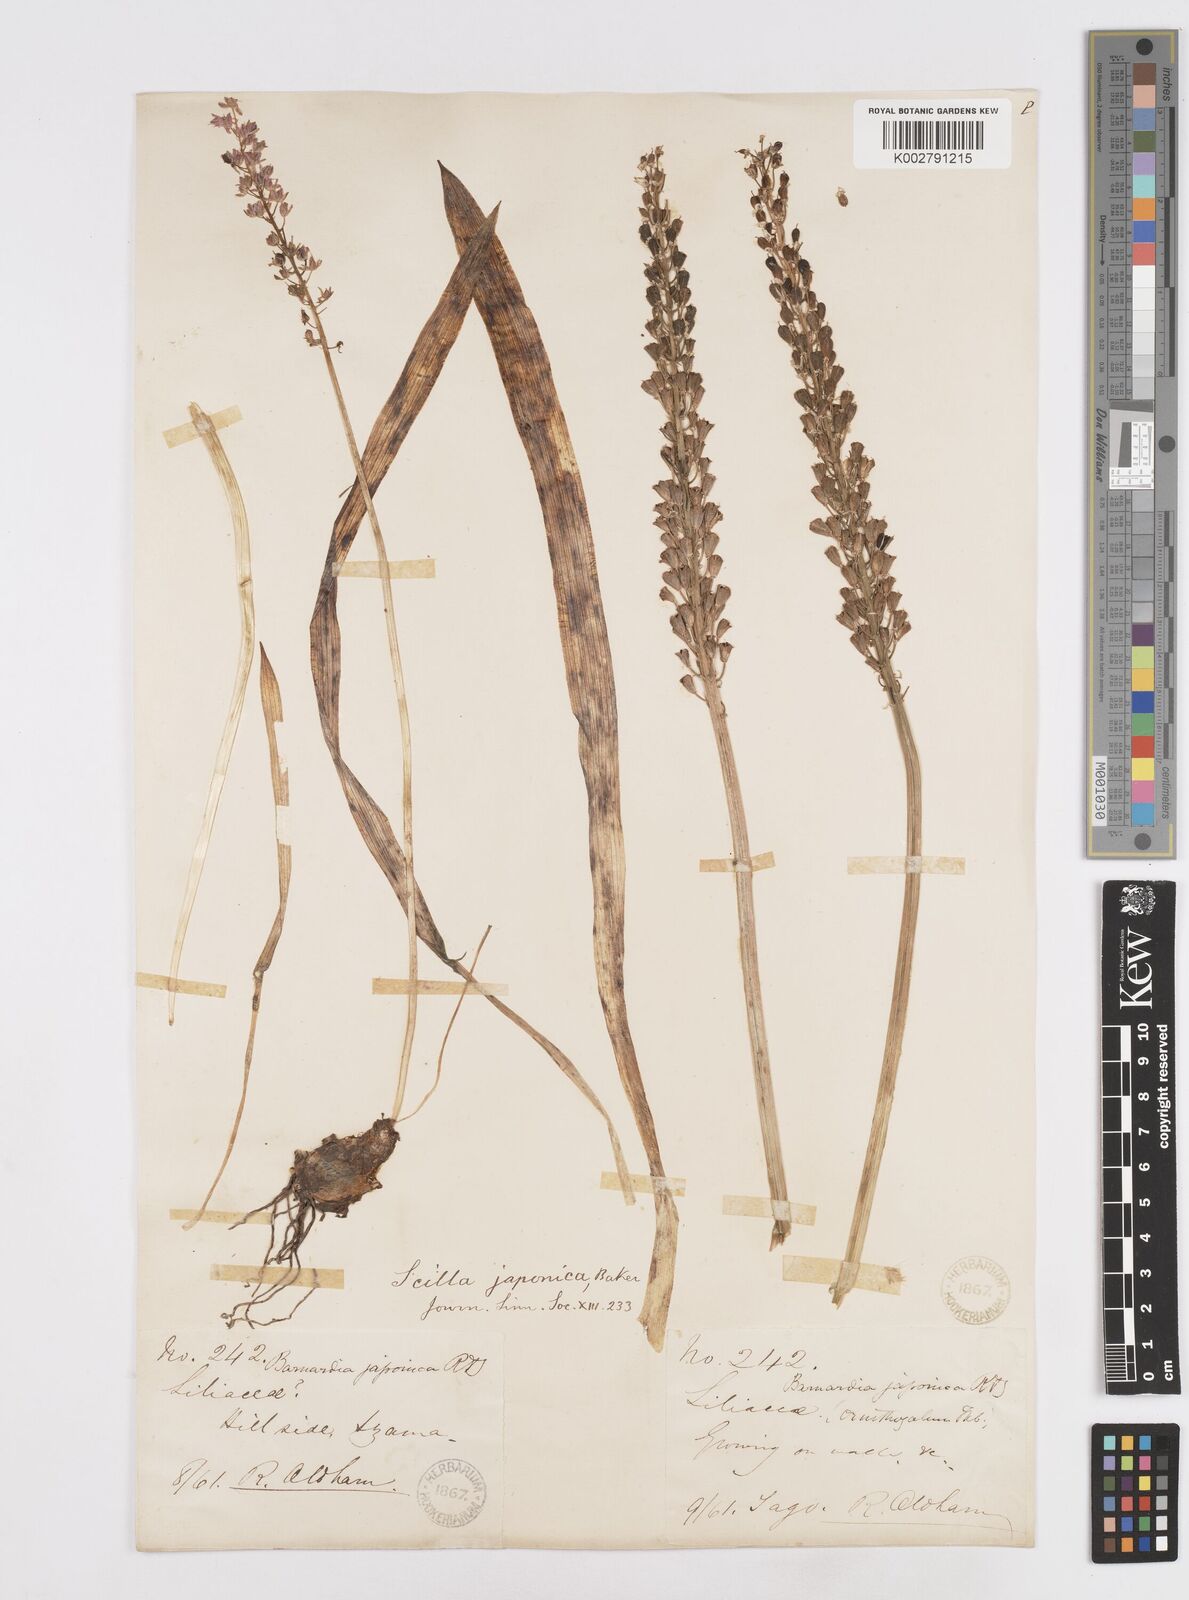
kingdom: Plantae
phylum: Tracheophyta
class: Liliopsida
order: Liliales
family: Melanthiaceae
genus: Helonias
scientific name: Helonias breviscapa
